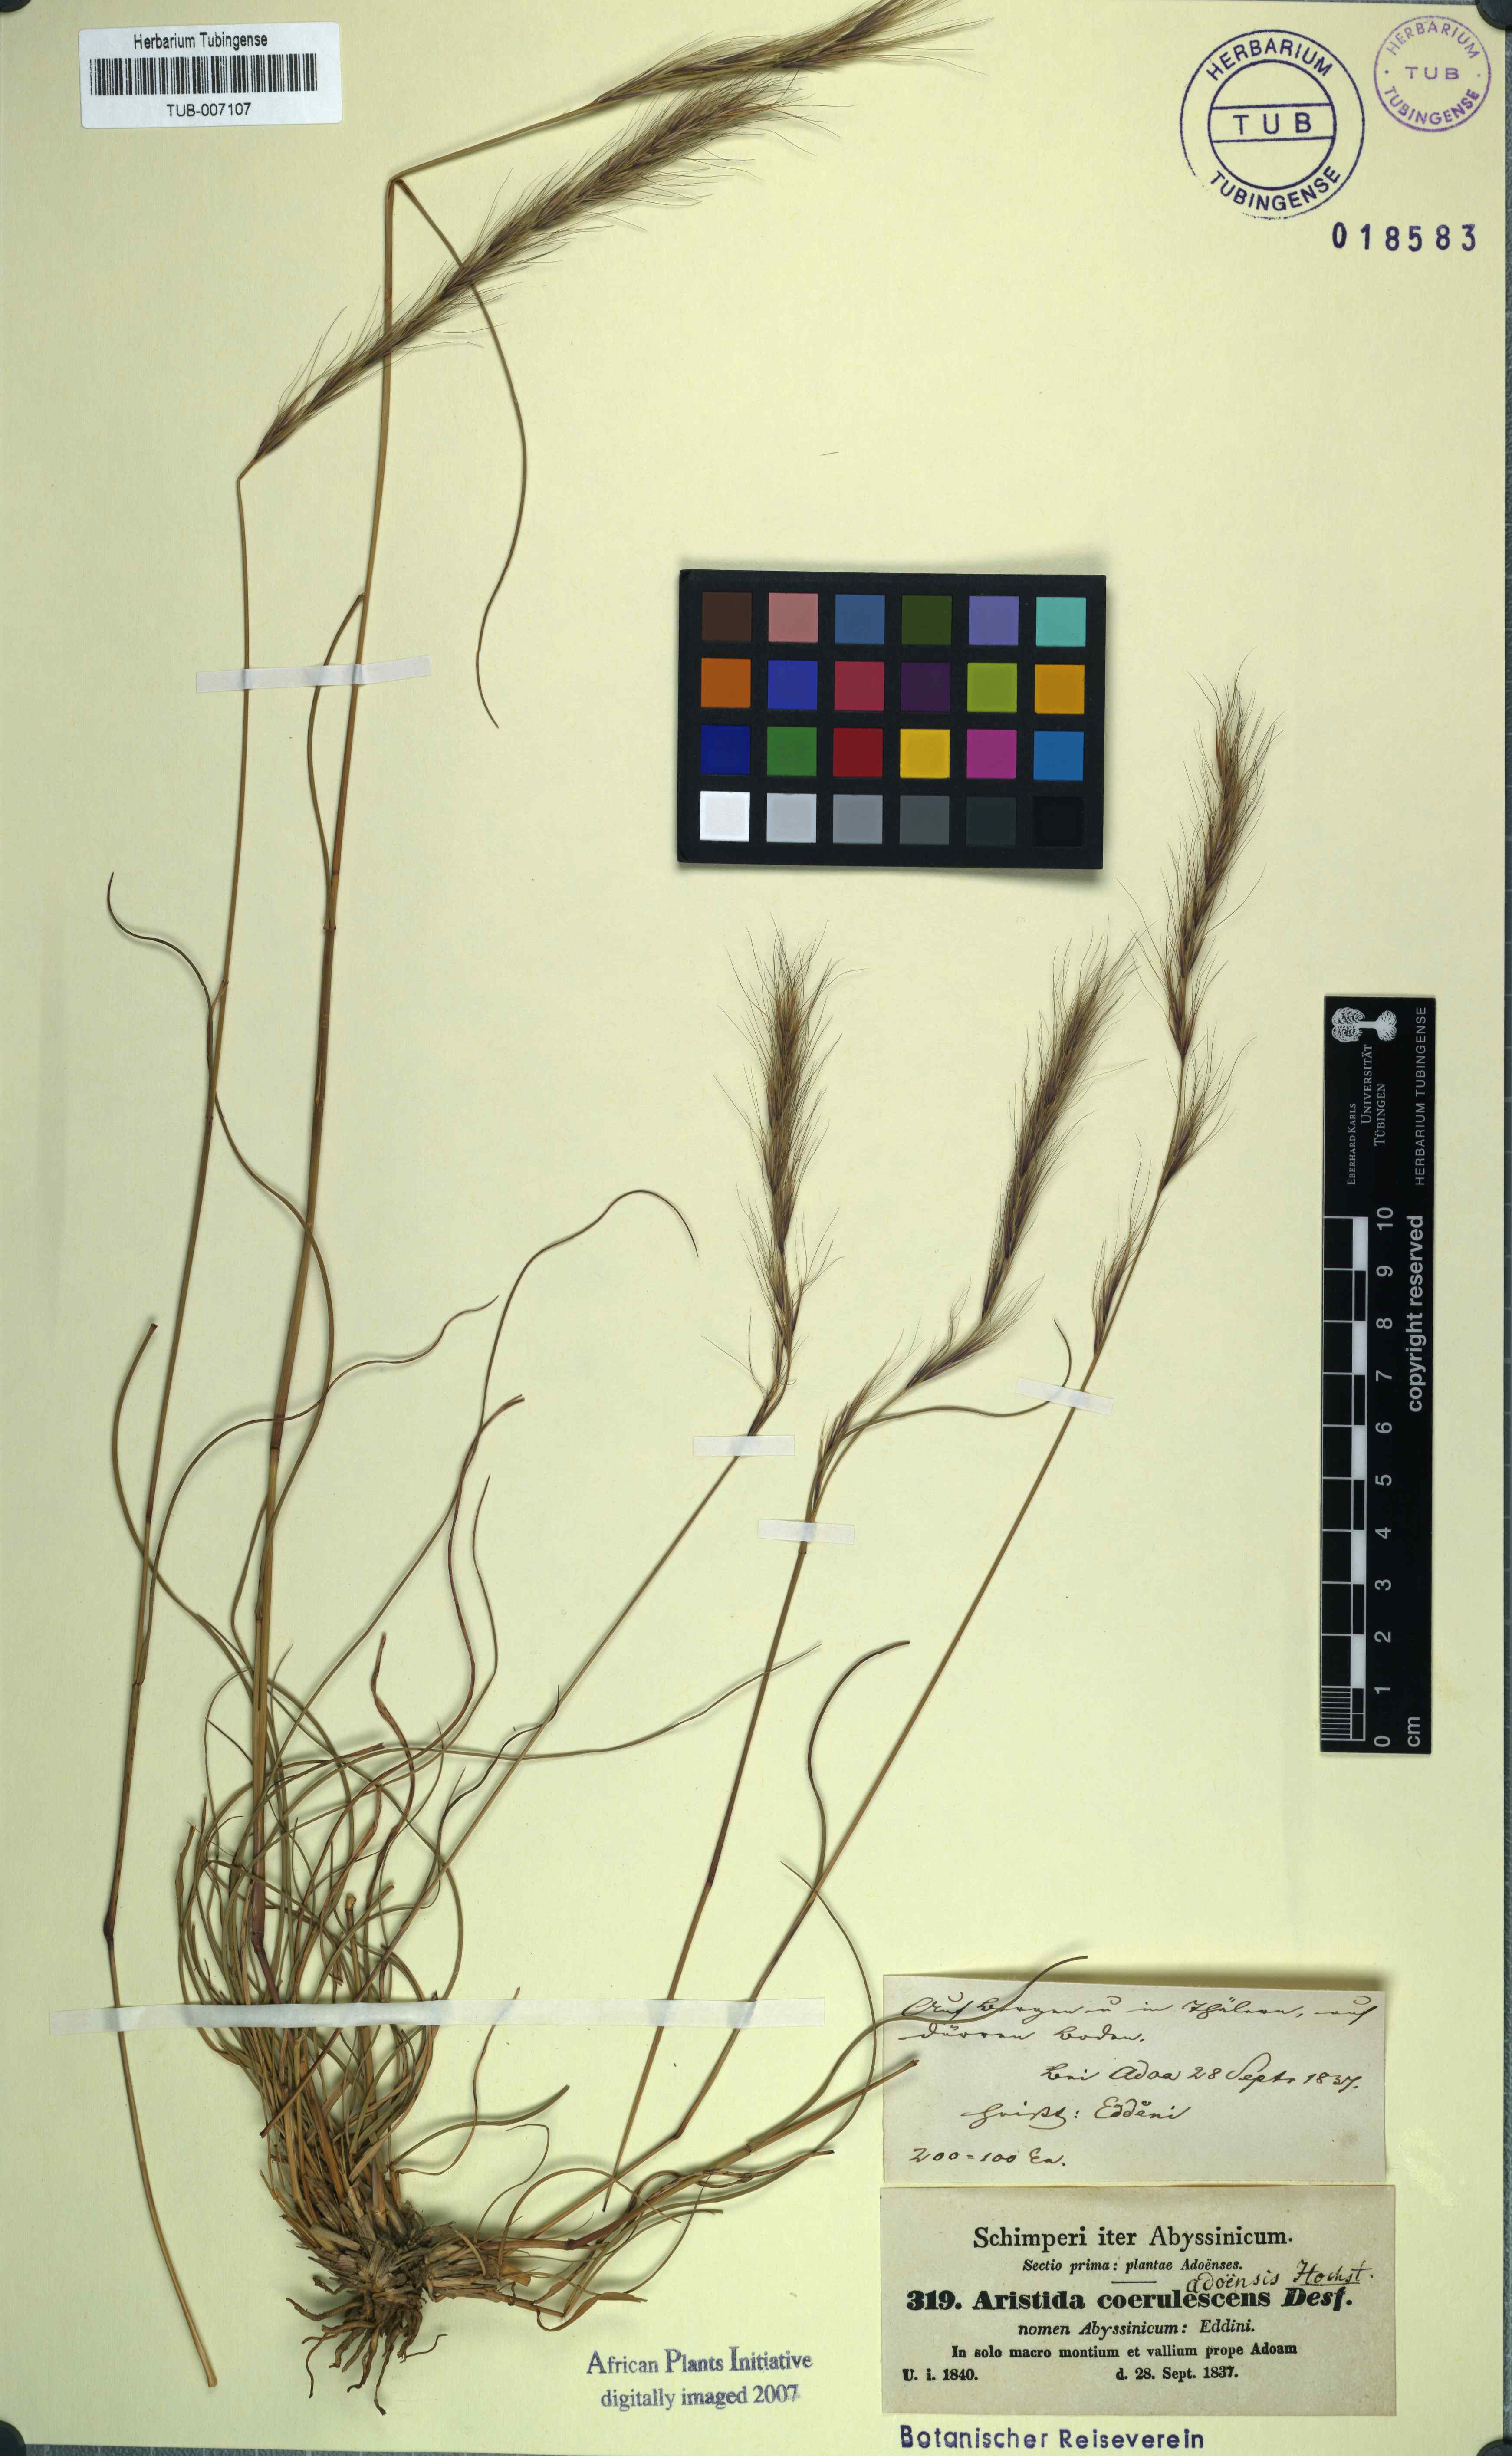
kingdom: Plantae
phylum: Tracheophyta
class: Liliopsida
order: Poales
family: Poaceae
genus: Aristida
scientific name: Aristida adoensis
